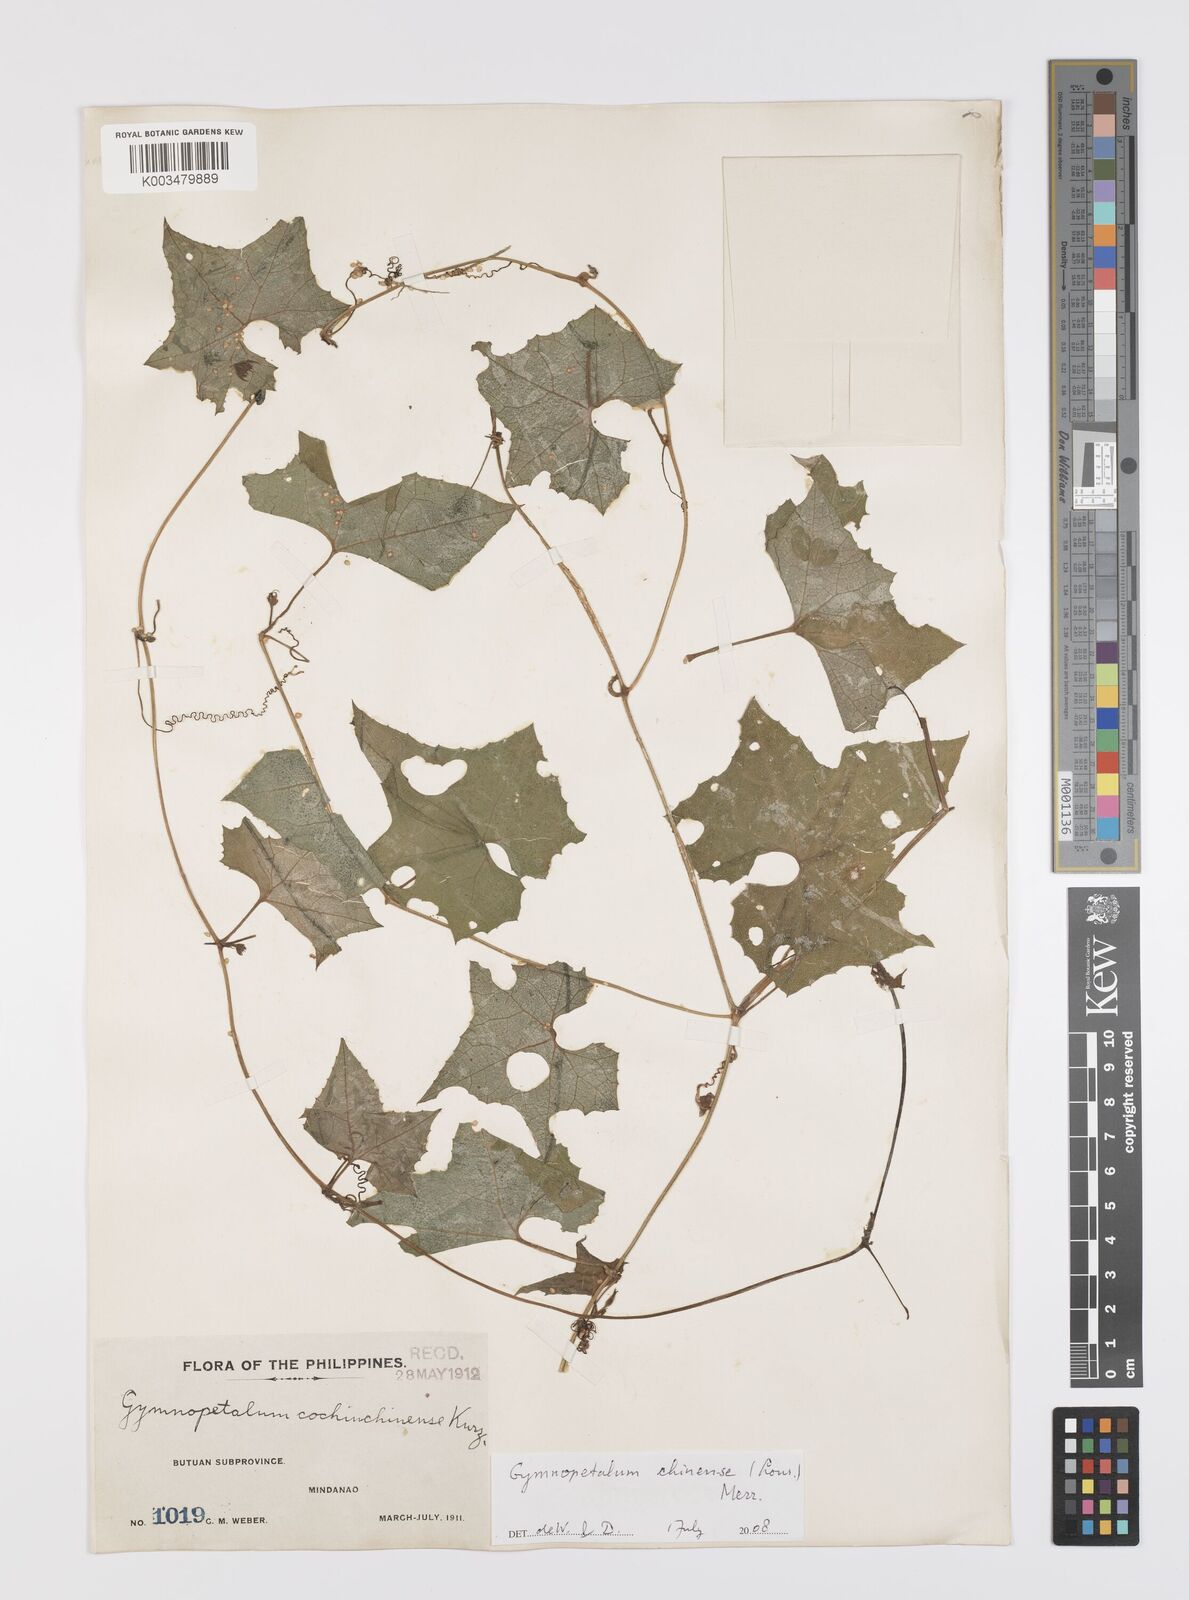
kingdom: Plantae
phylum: Tracheophyta
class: Magnoliopsida
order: Cucurbitales
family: Cucurbitaceae
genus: Trichosanthes
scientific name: Trichosanthes costata
